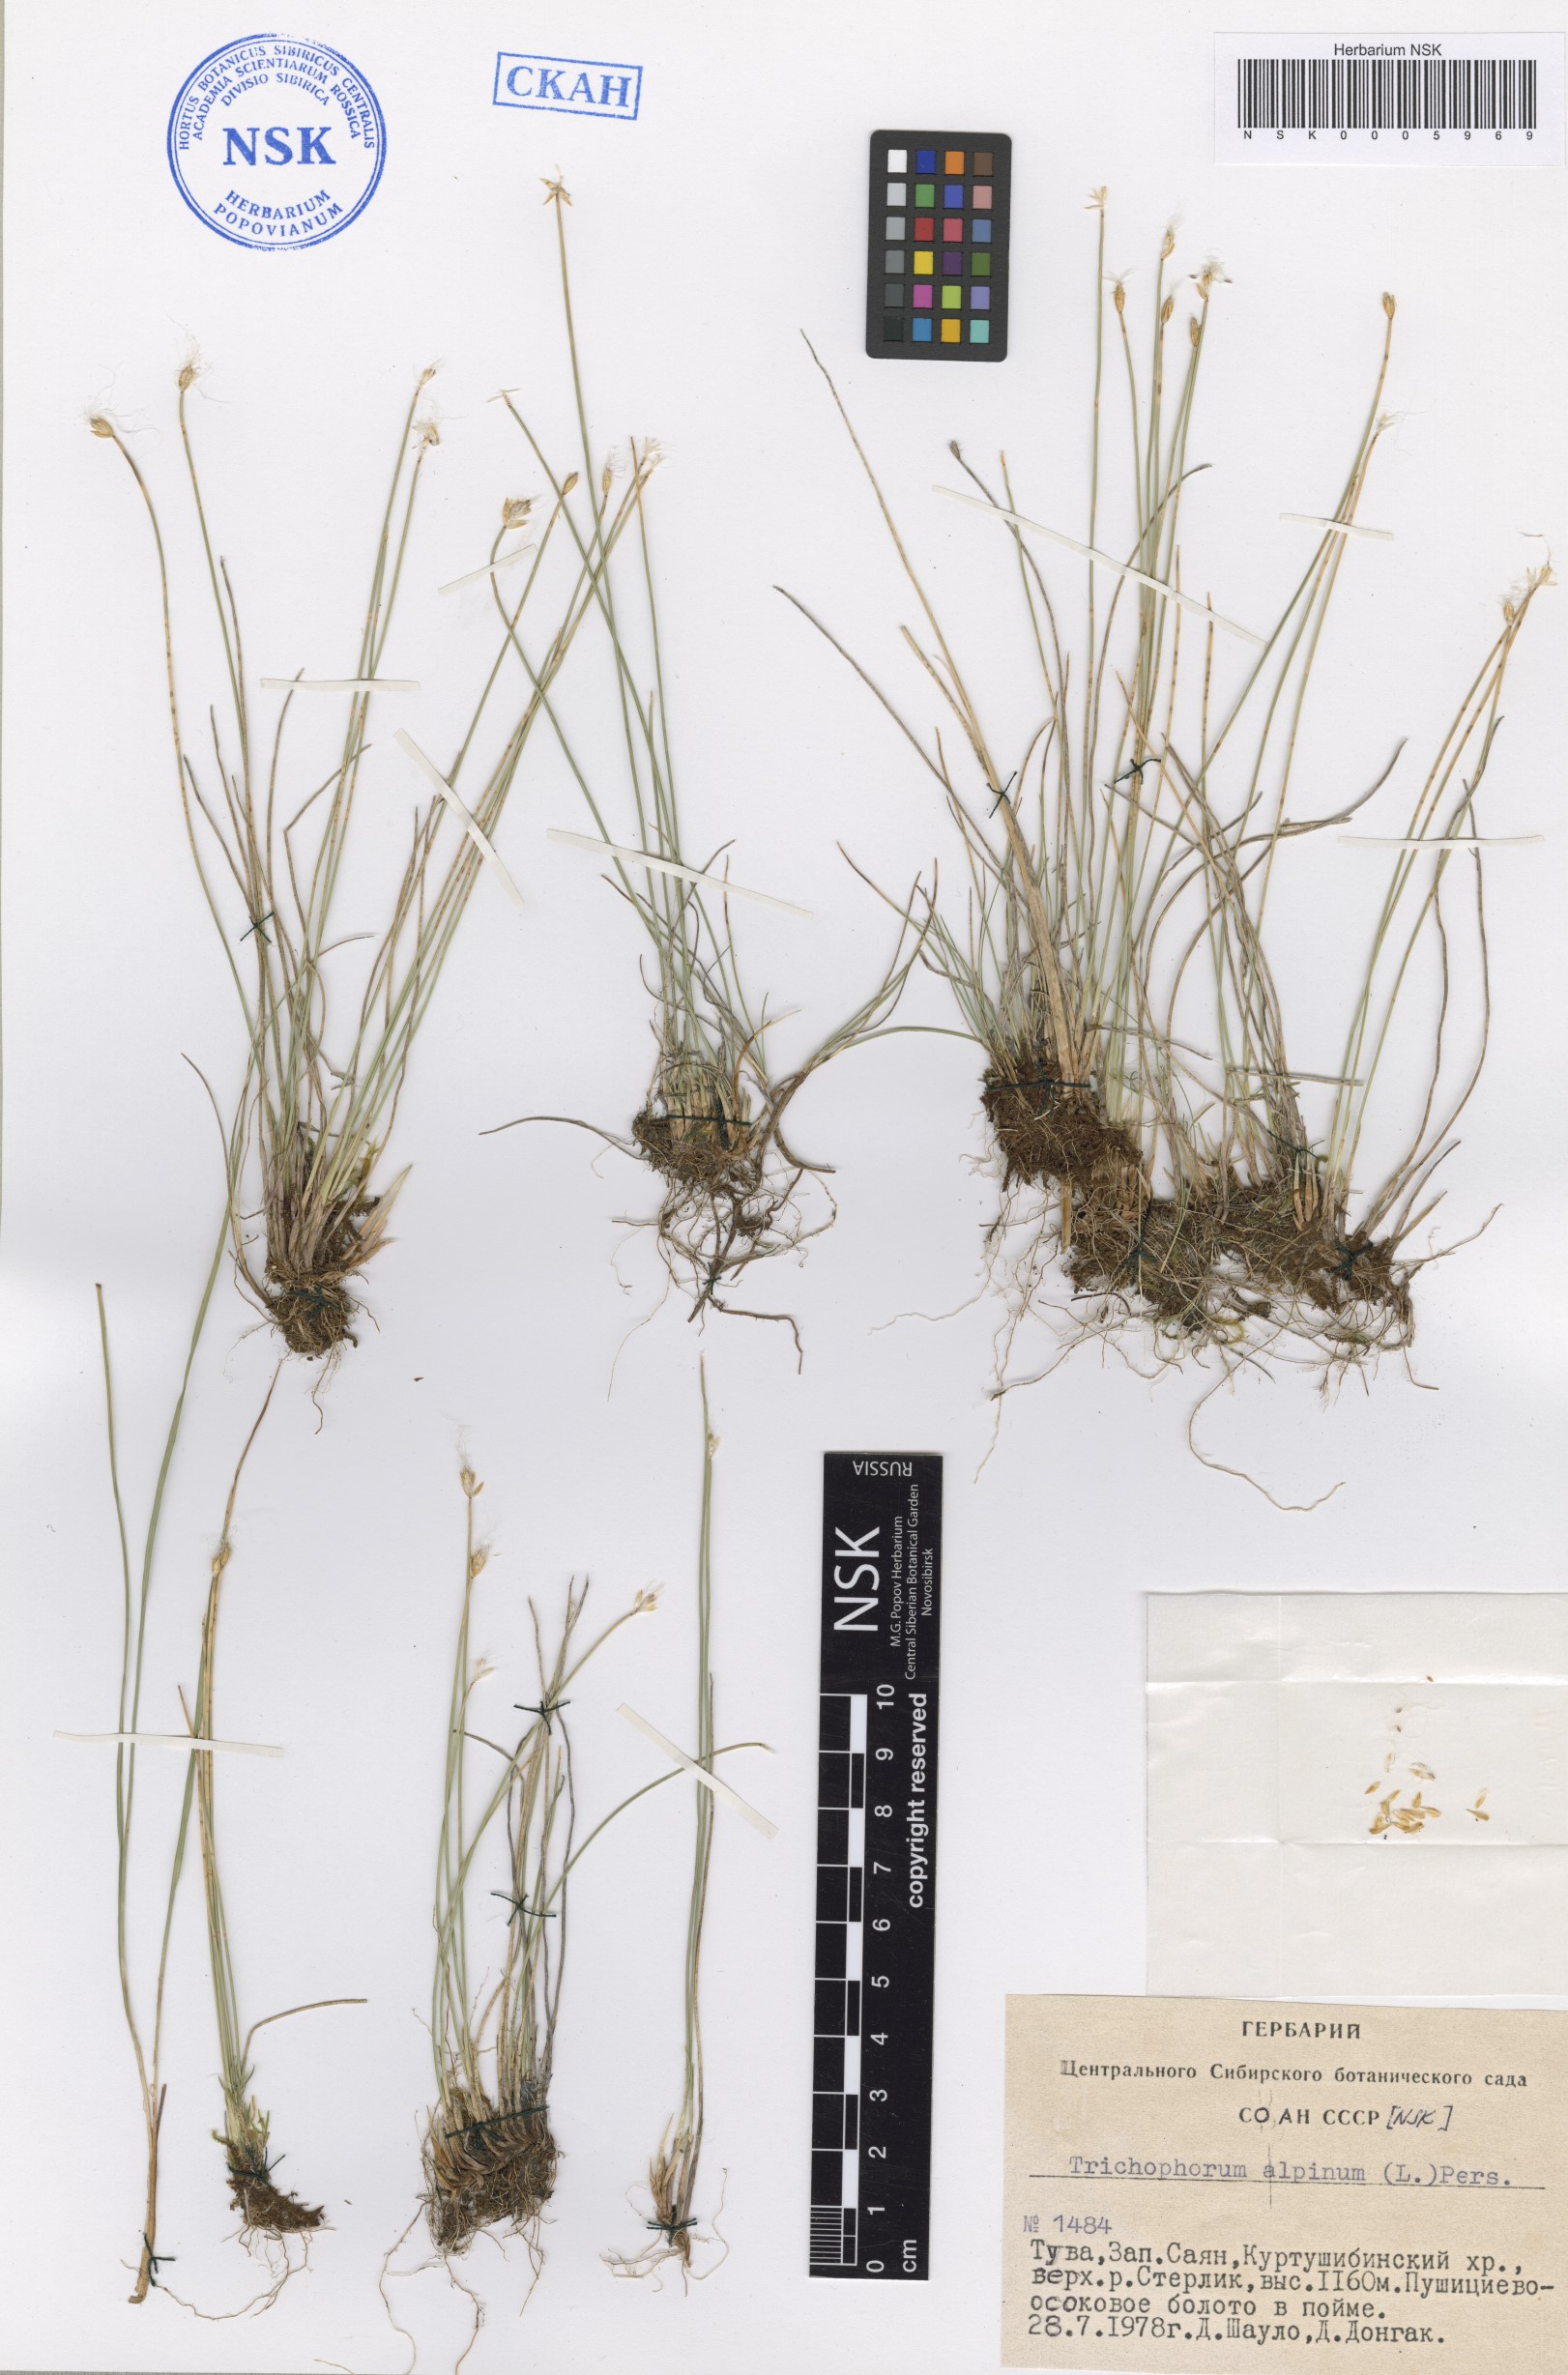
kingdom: Plantae
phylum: Tracheophyta
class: Liliopsida
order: Poales
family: Cyperaceae
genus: Trichophorum
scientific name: Trichophorum alpinum
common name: Alpine bulrush
